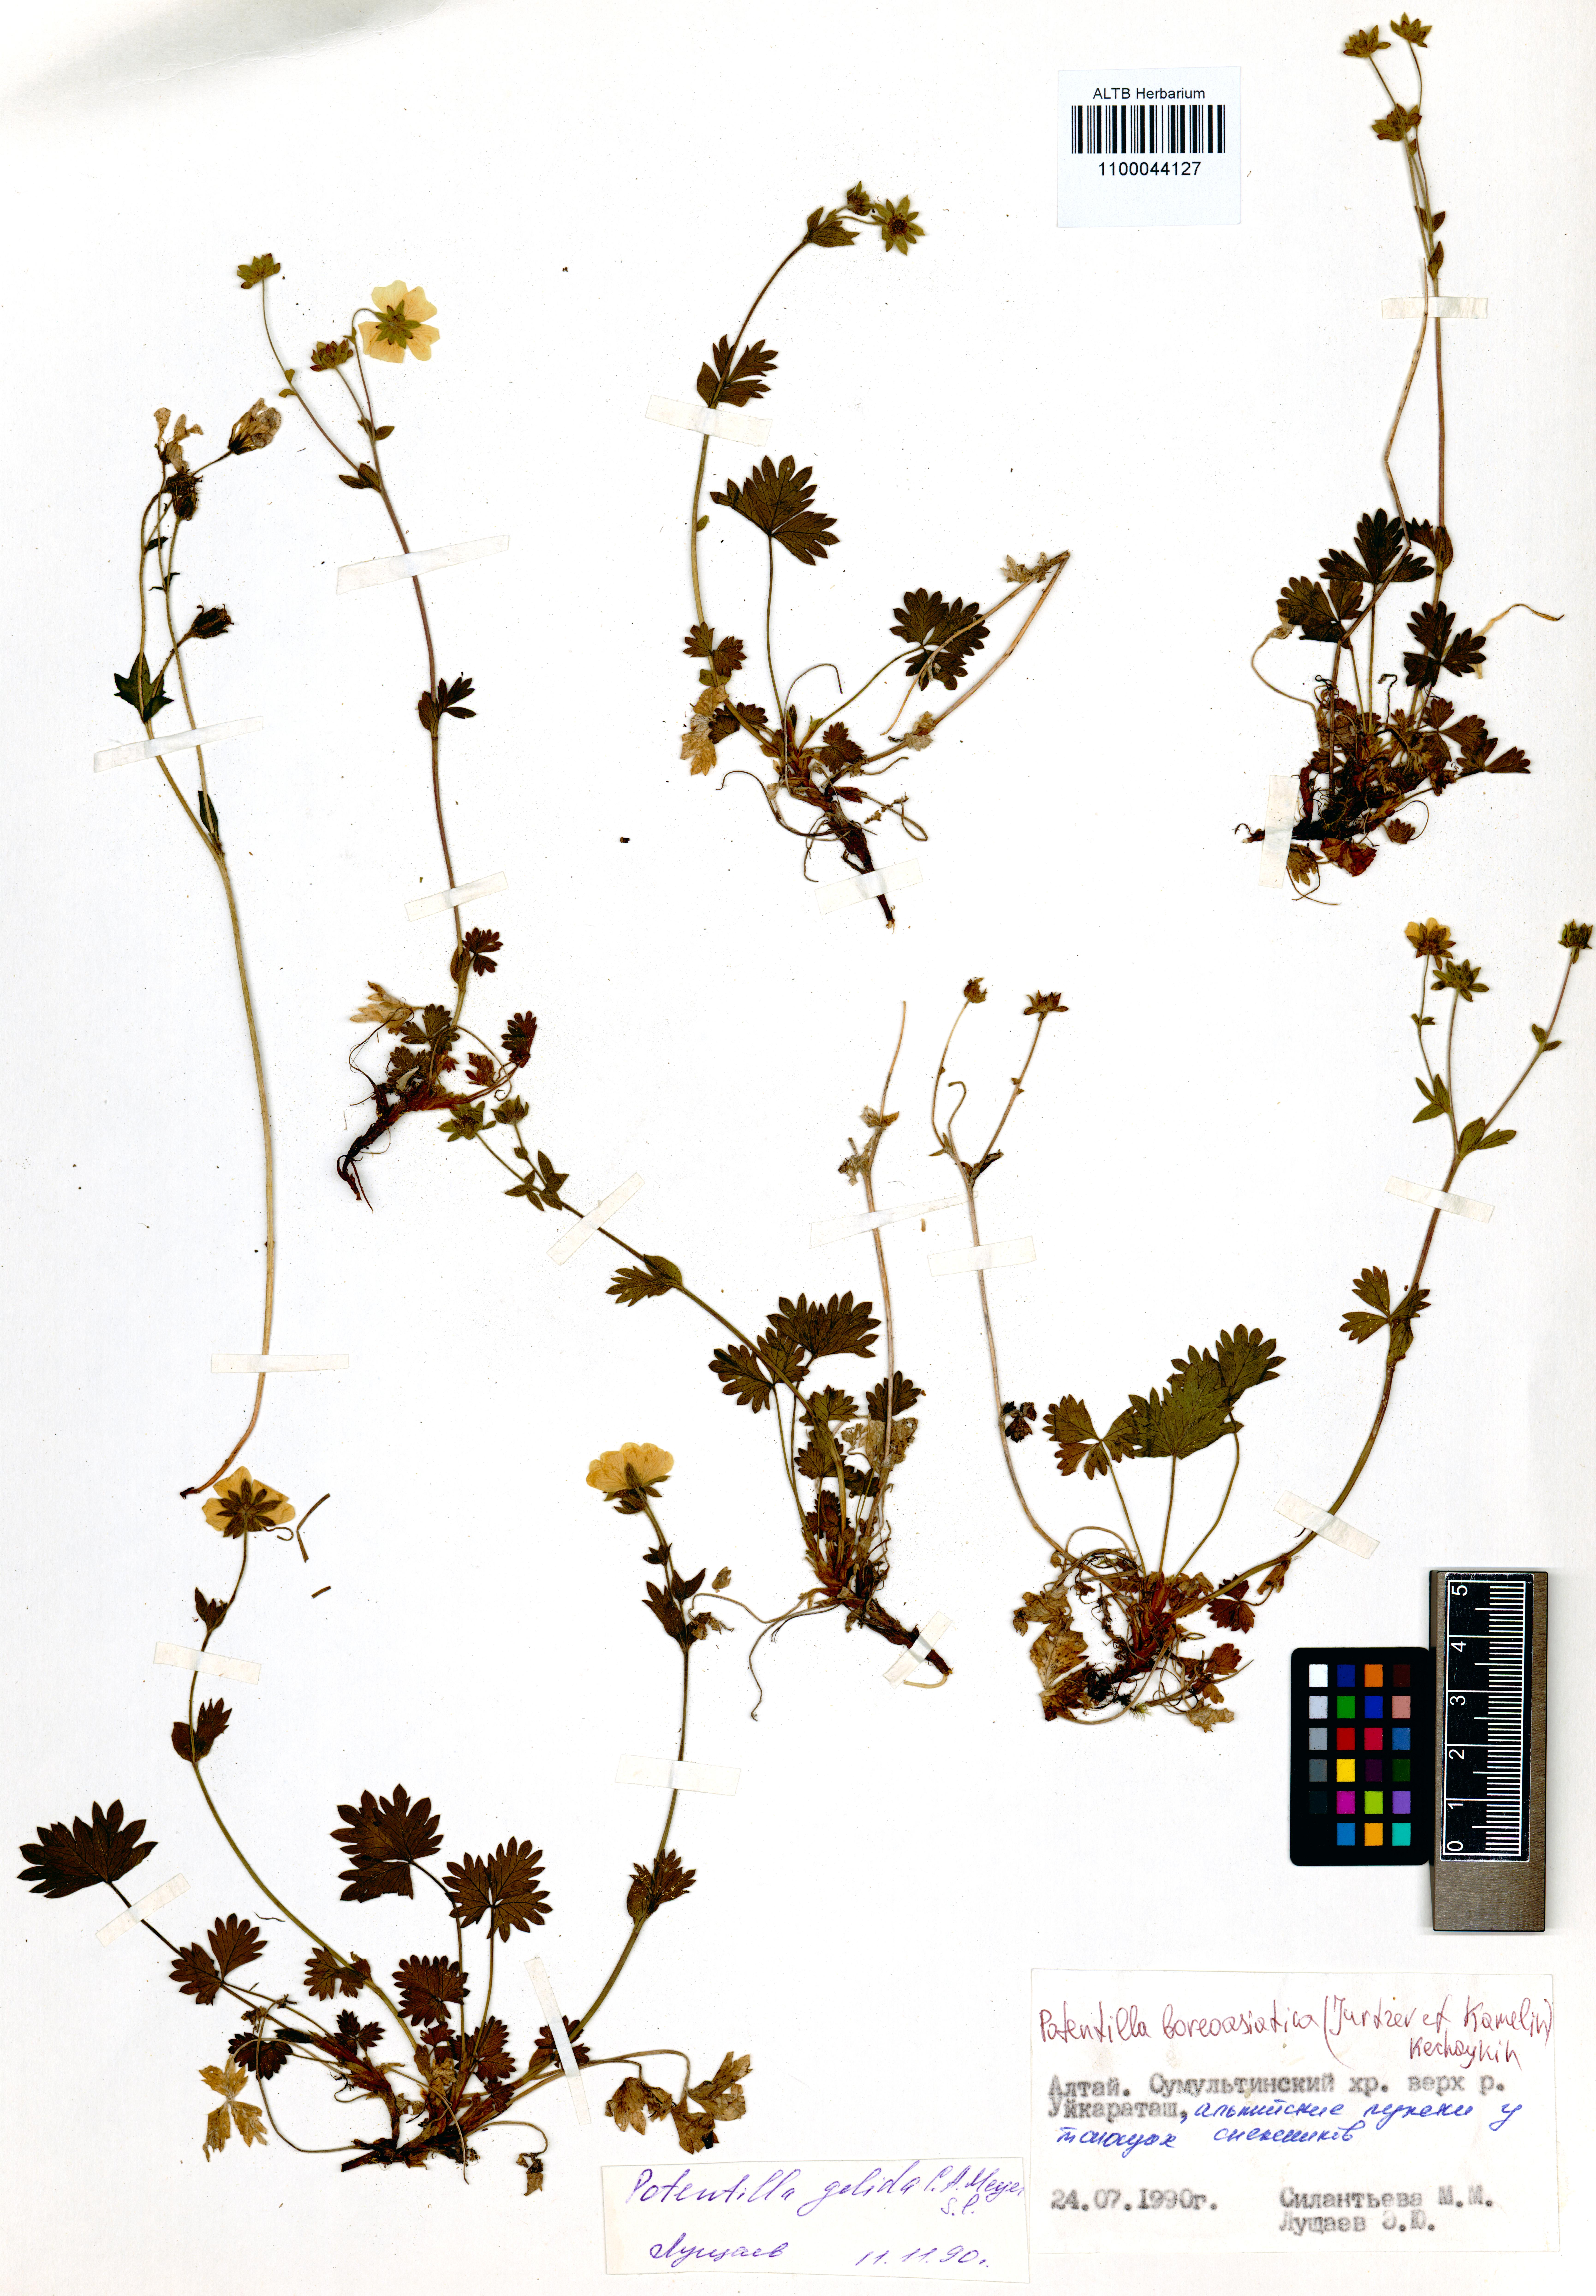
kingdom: Plantae
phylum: Tracheophyta
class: Magnoliopsida
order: Rosales
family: Rosaceae
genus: Potentilla
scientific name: Potentilla
